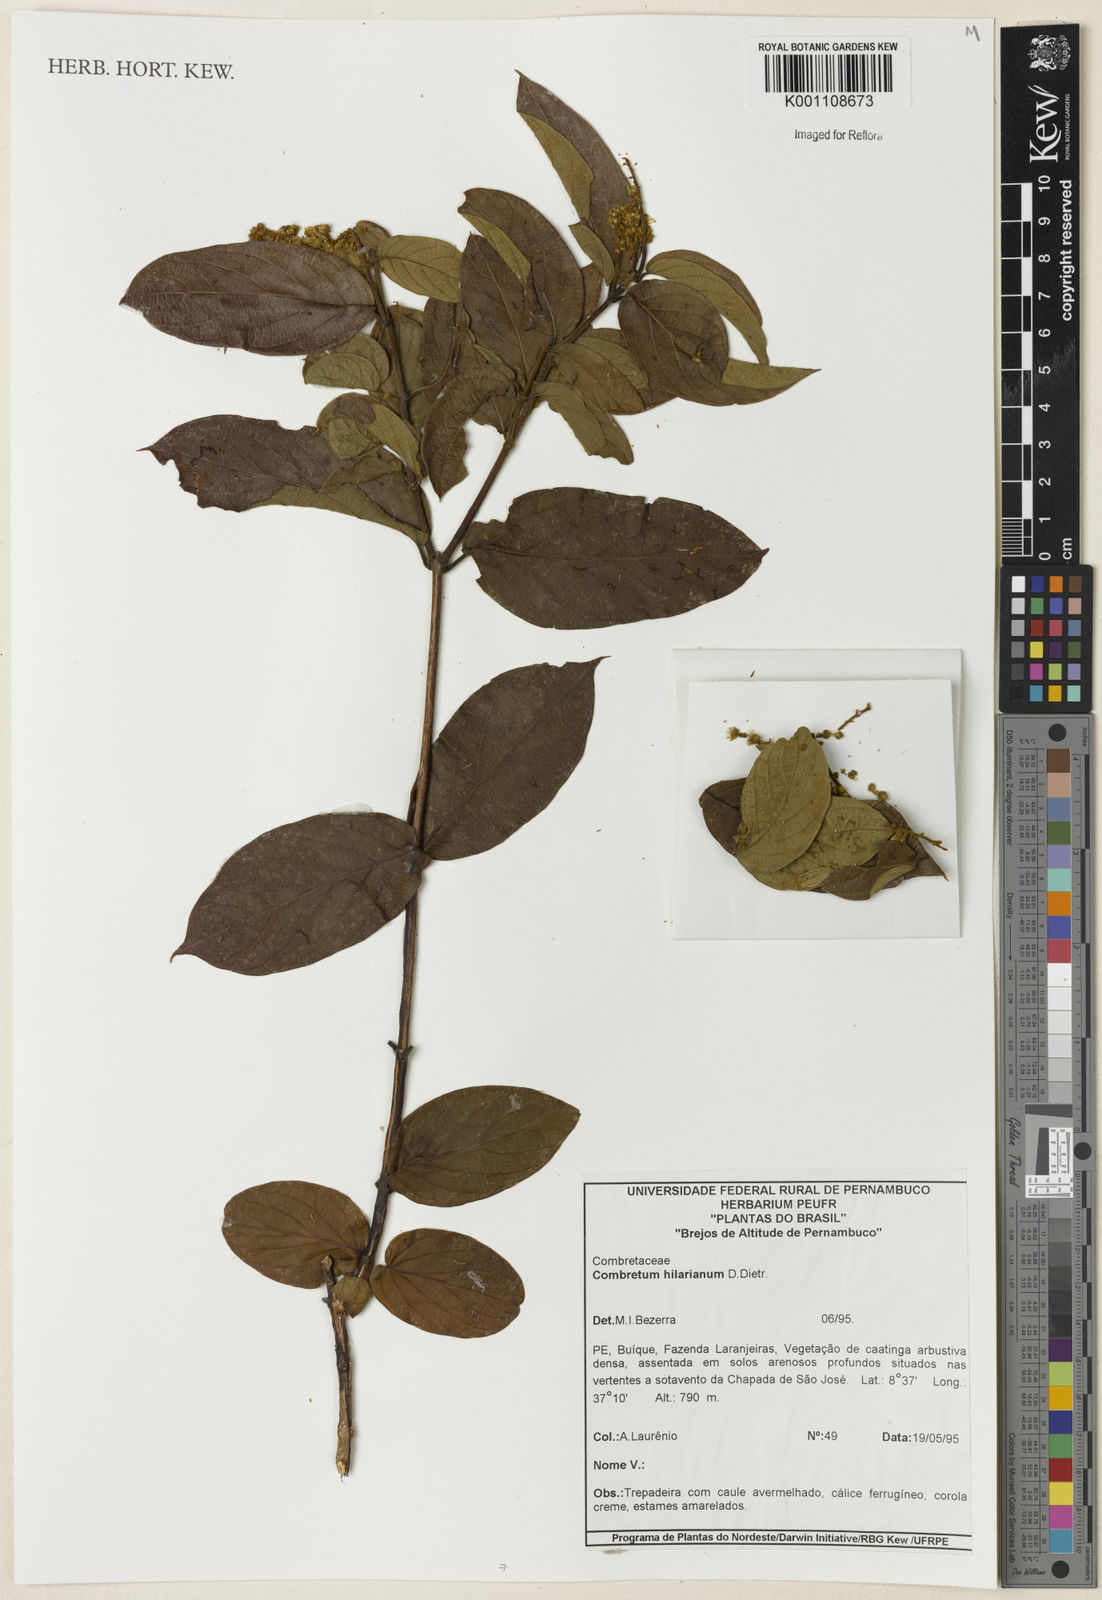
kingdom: Plantae
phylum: Tracheophyta
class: Magnoliopsida
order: Myrtales
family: Combretaceae
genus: Combretum
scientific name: Combretum hilarianum
